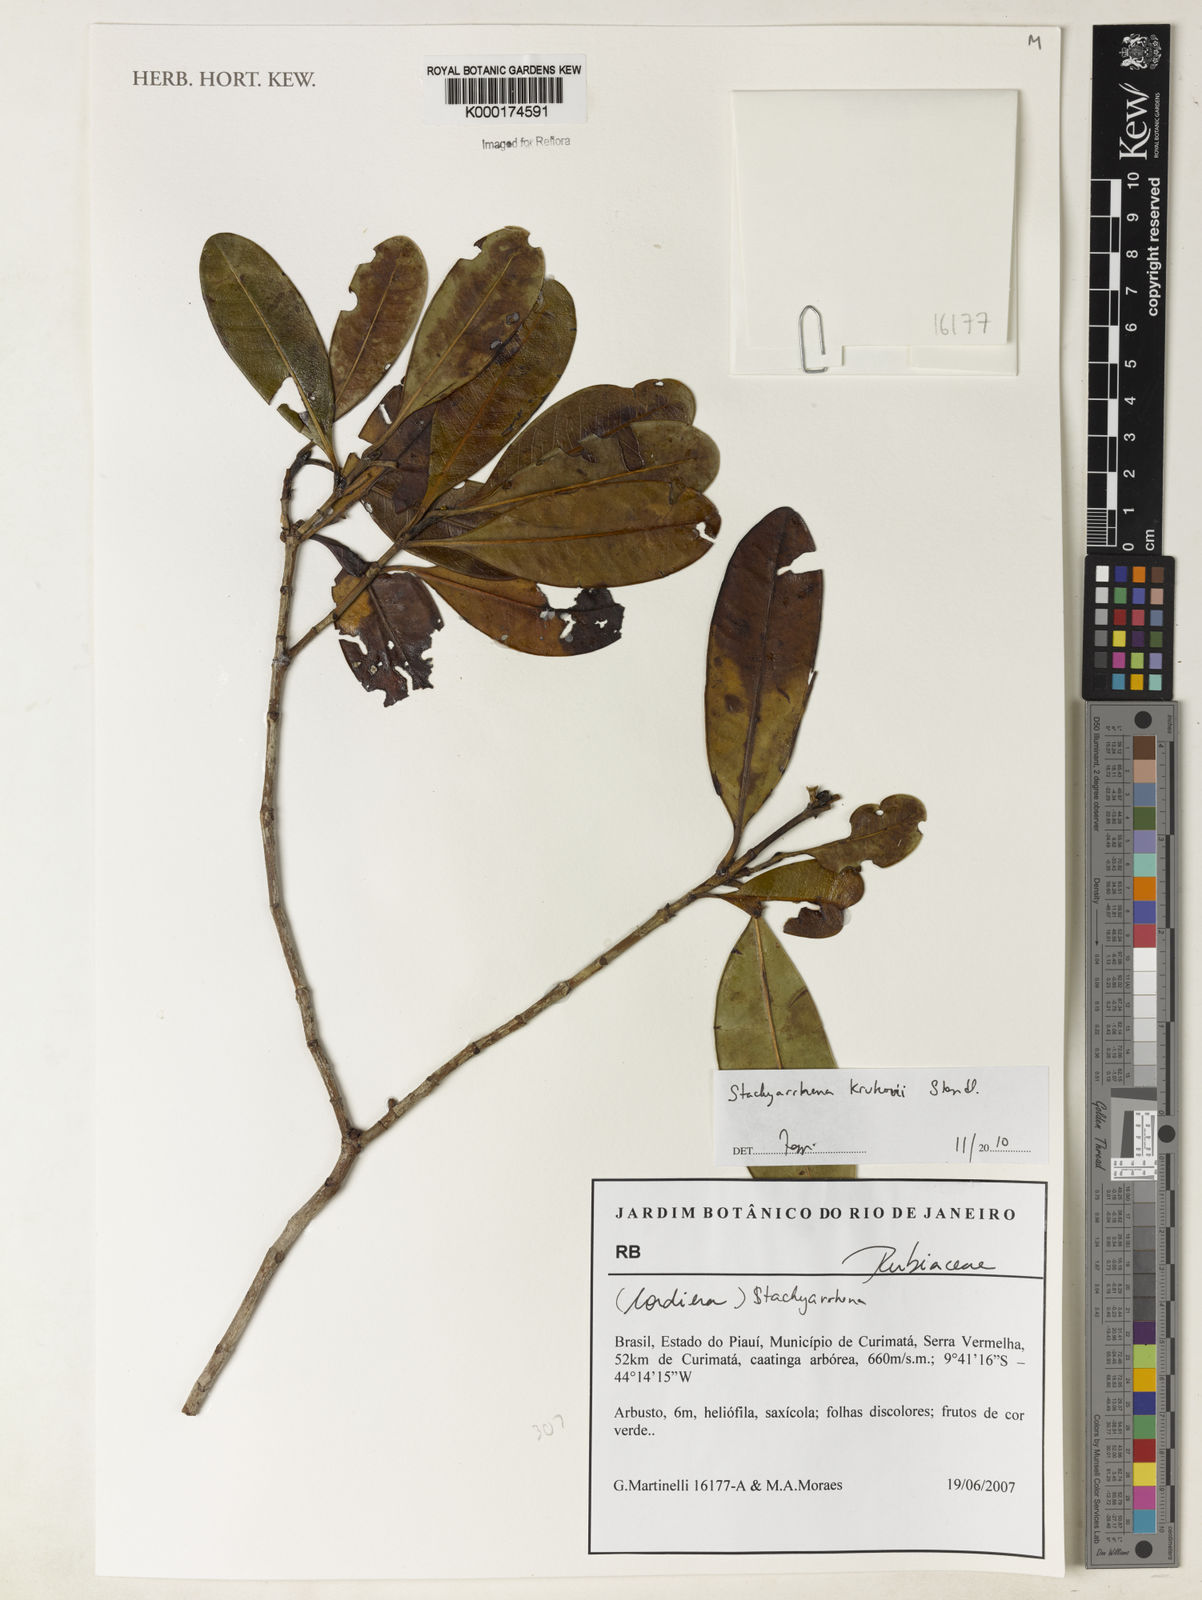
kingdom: Plantae
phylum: Tracheophyta
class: Magnoliopsida
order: Gentianales
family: Rubiaceae
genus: Stachyarrhena
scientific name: Stachyarrhena
